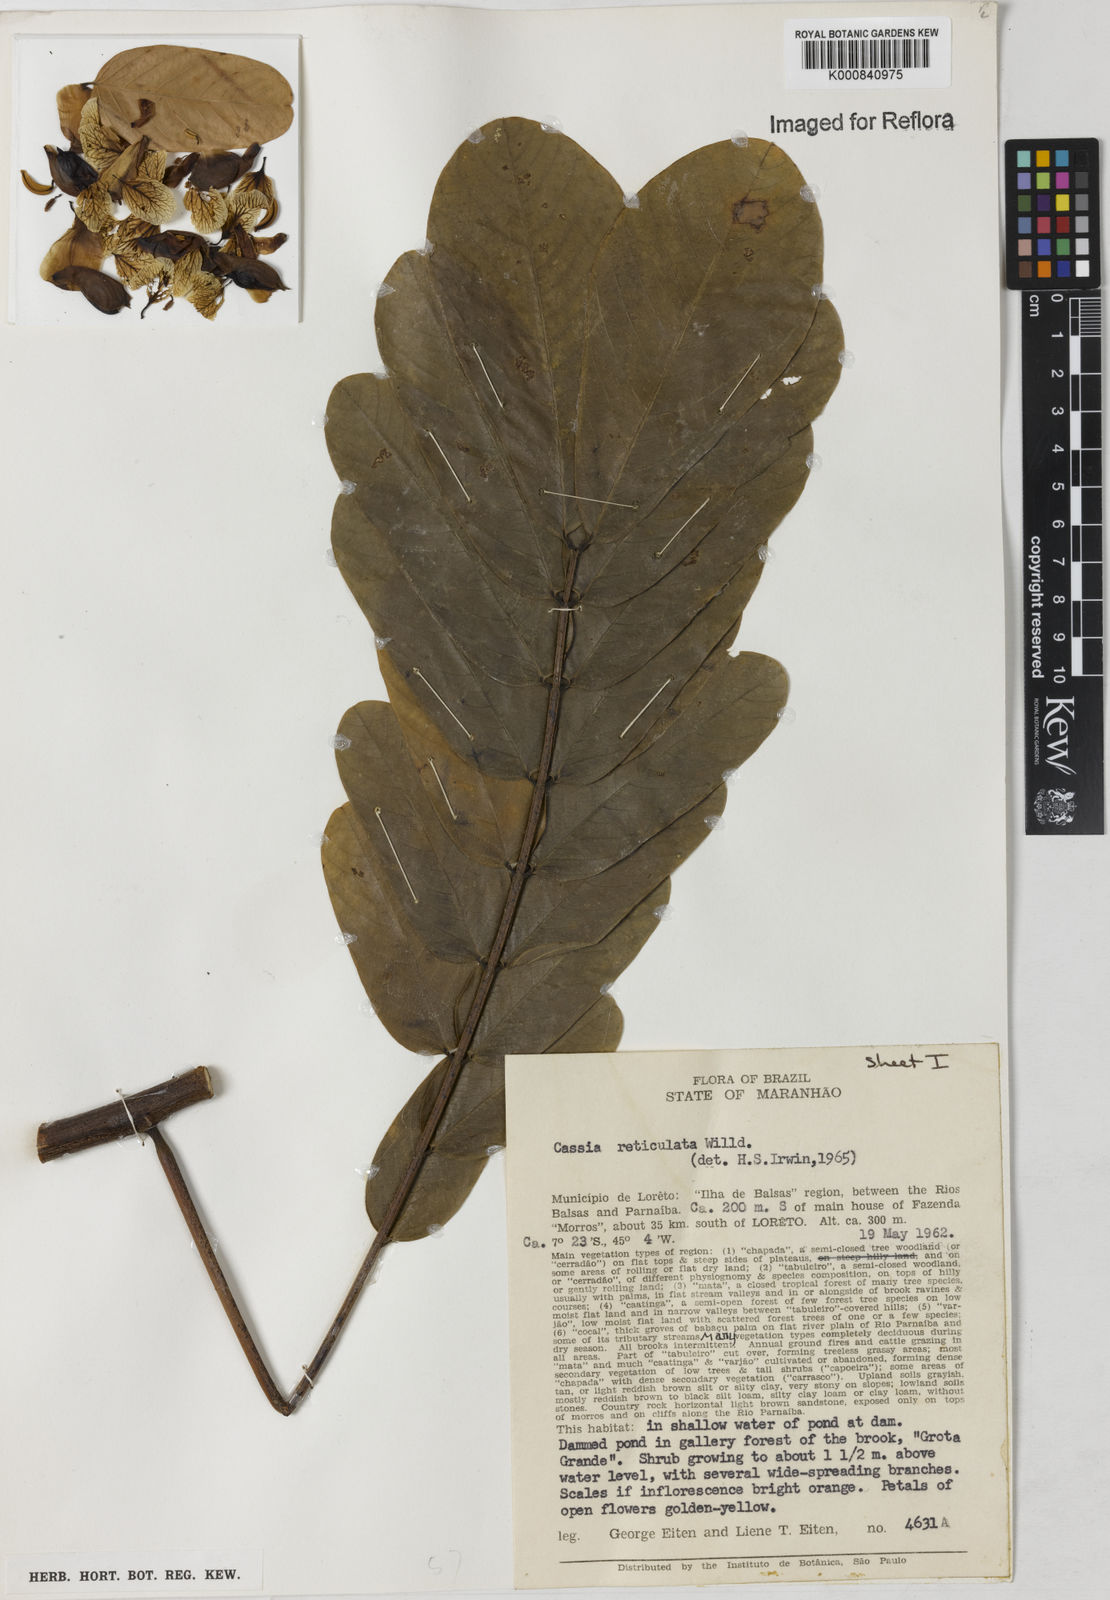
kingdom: Plantae
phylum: Tracheophyta
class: Magnoliopsida
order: Fabales
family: Fabaceae
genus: Senna
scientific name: Senna reticulata
